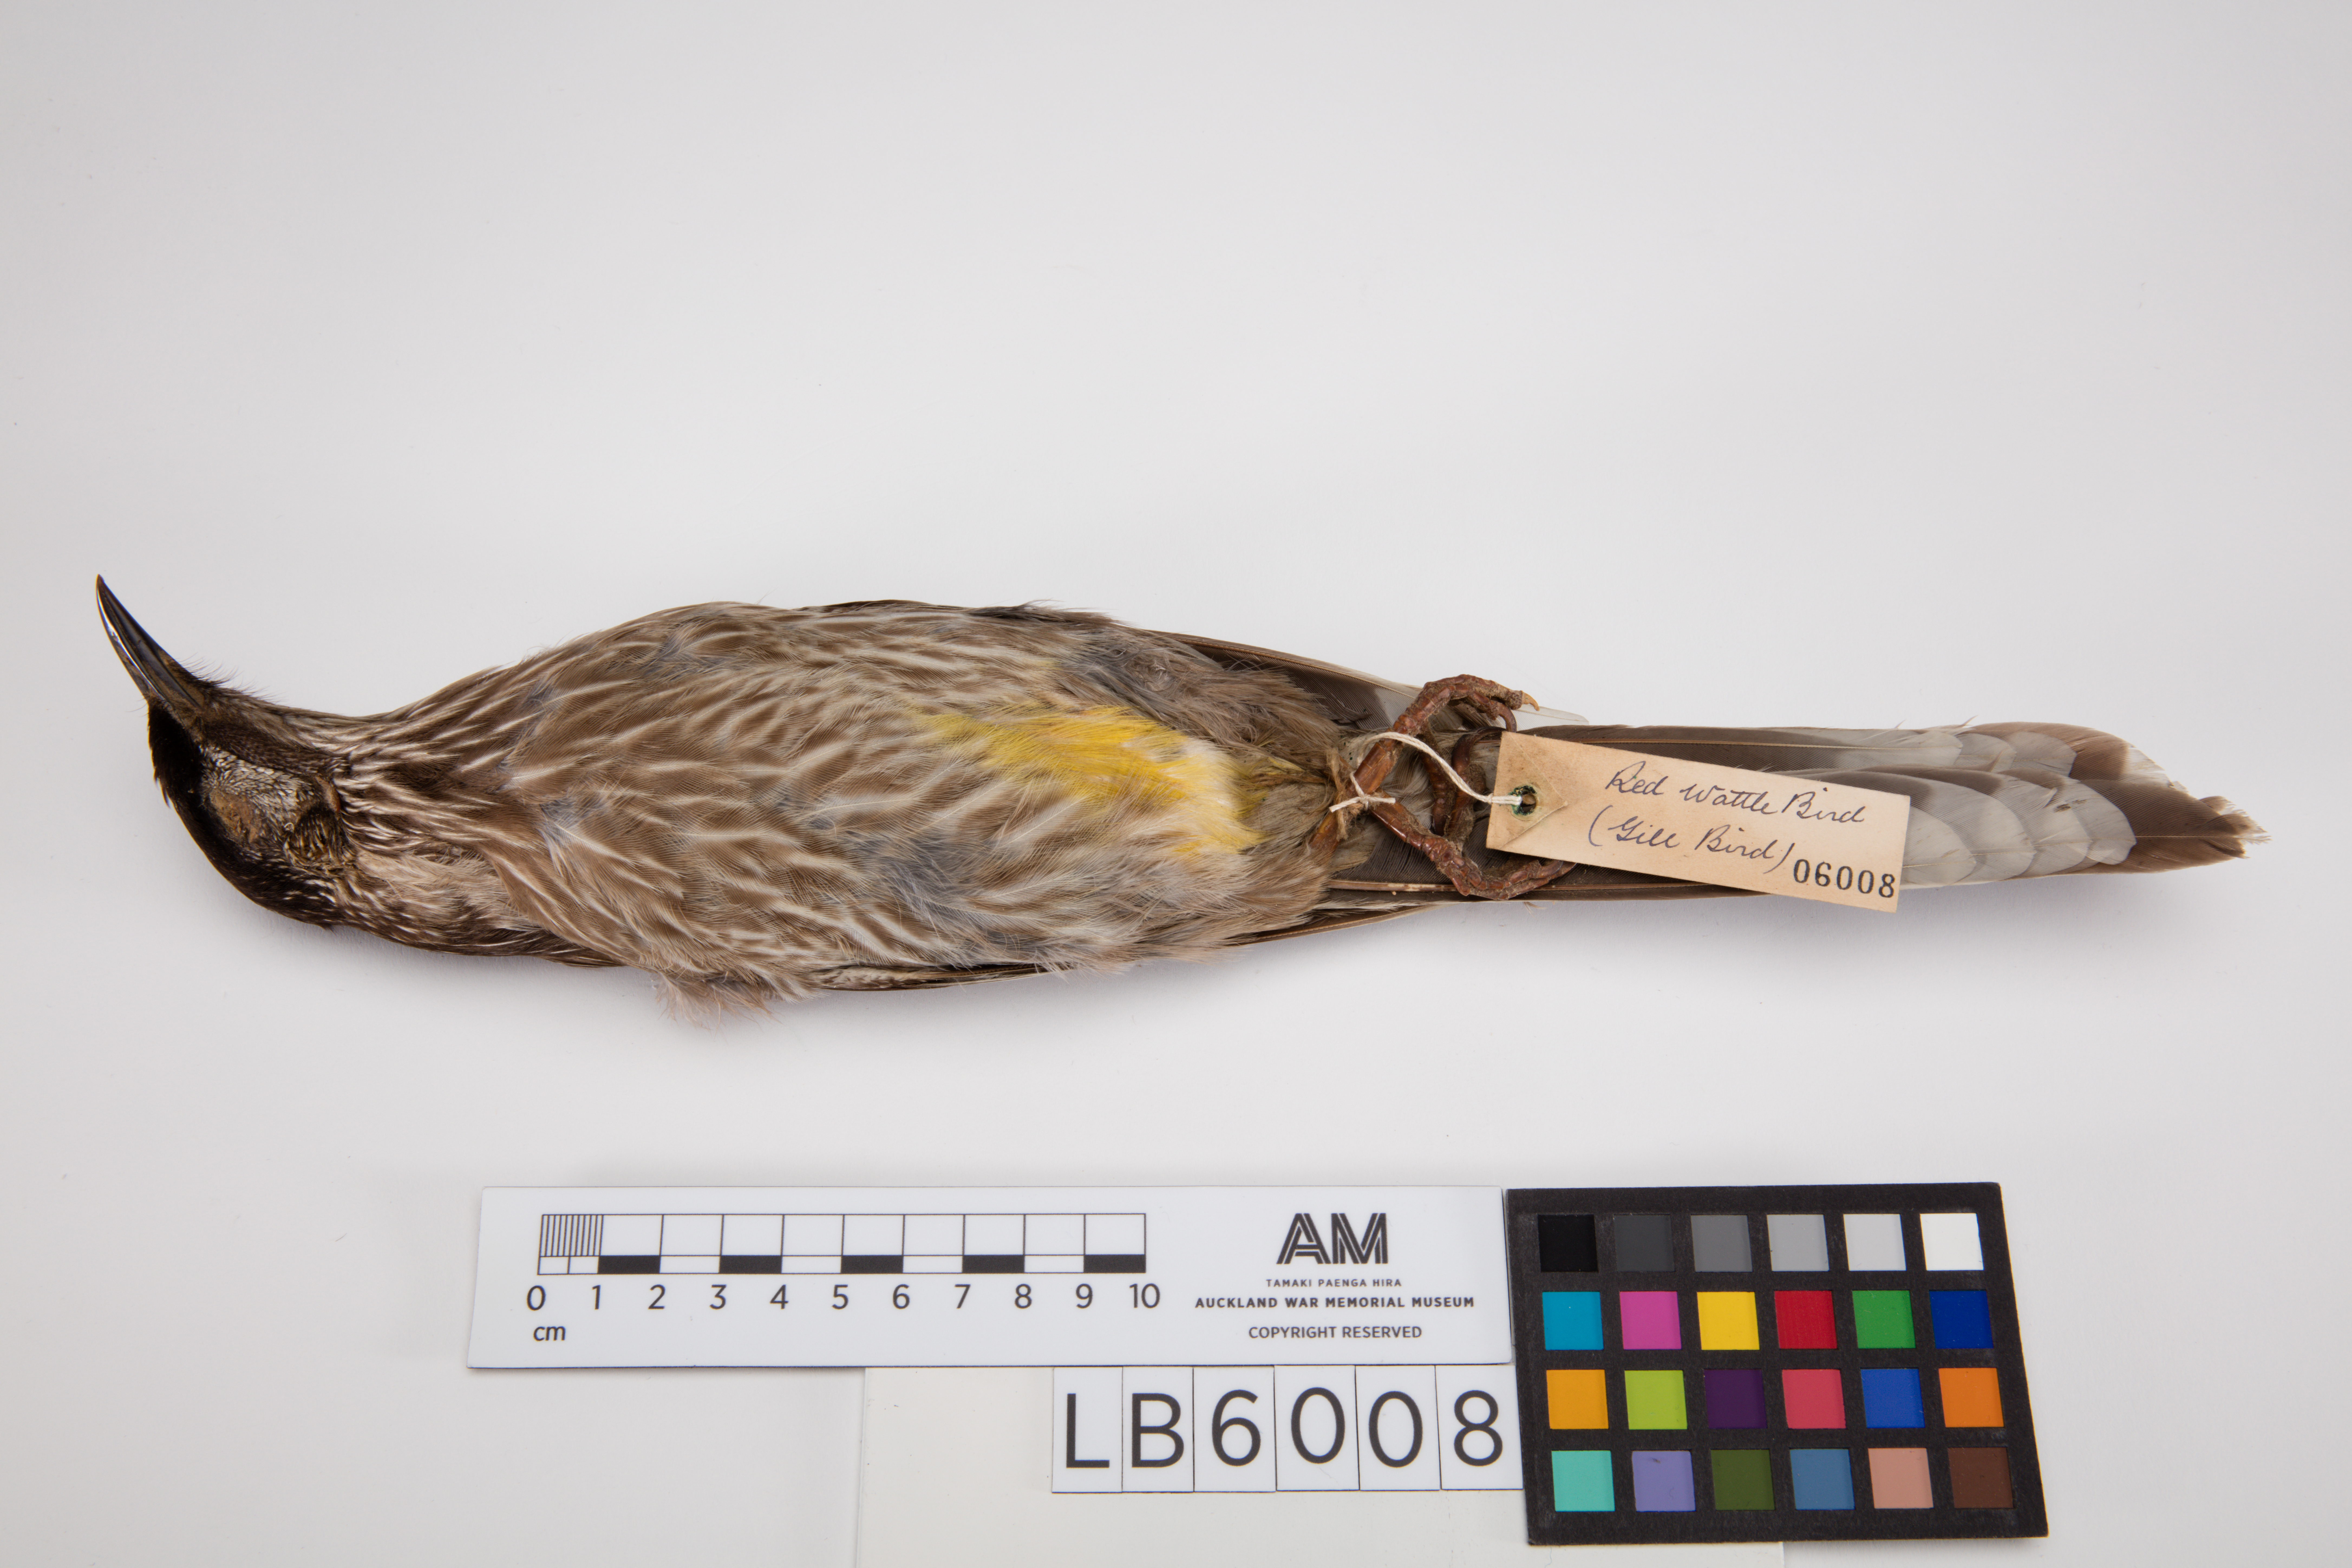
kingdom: Animalia
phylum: Chordata
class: Aves
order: Passeriformes
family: Meliphagidae
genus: Anthochaera
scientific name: Anthochaera carunculata
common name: Red wattlebird
